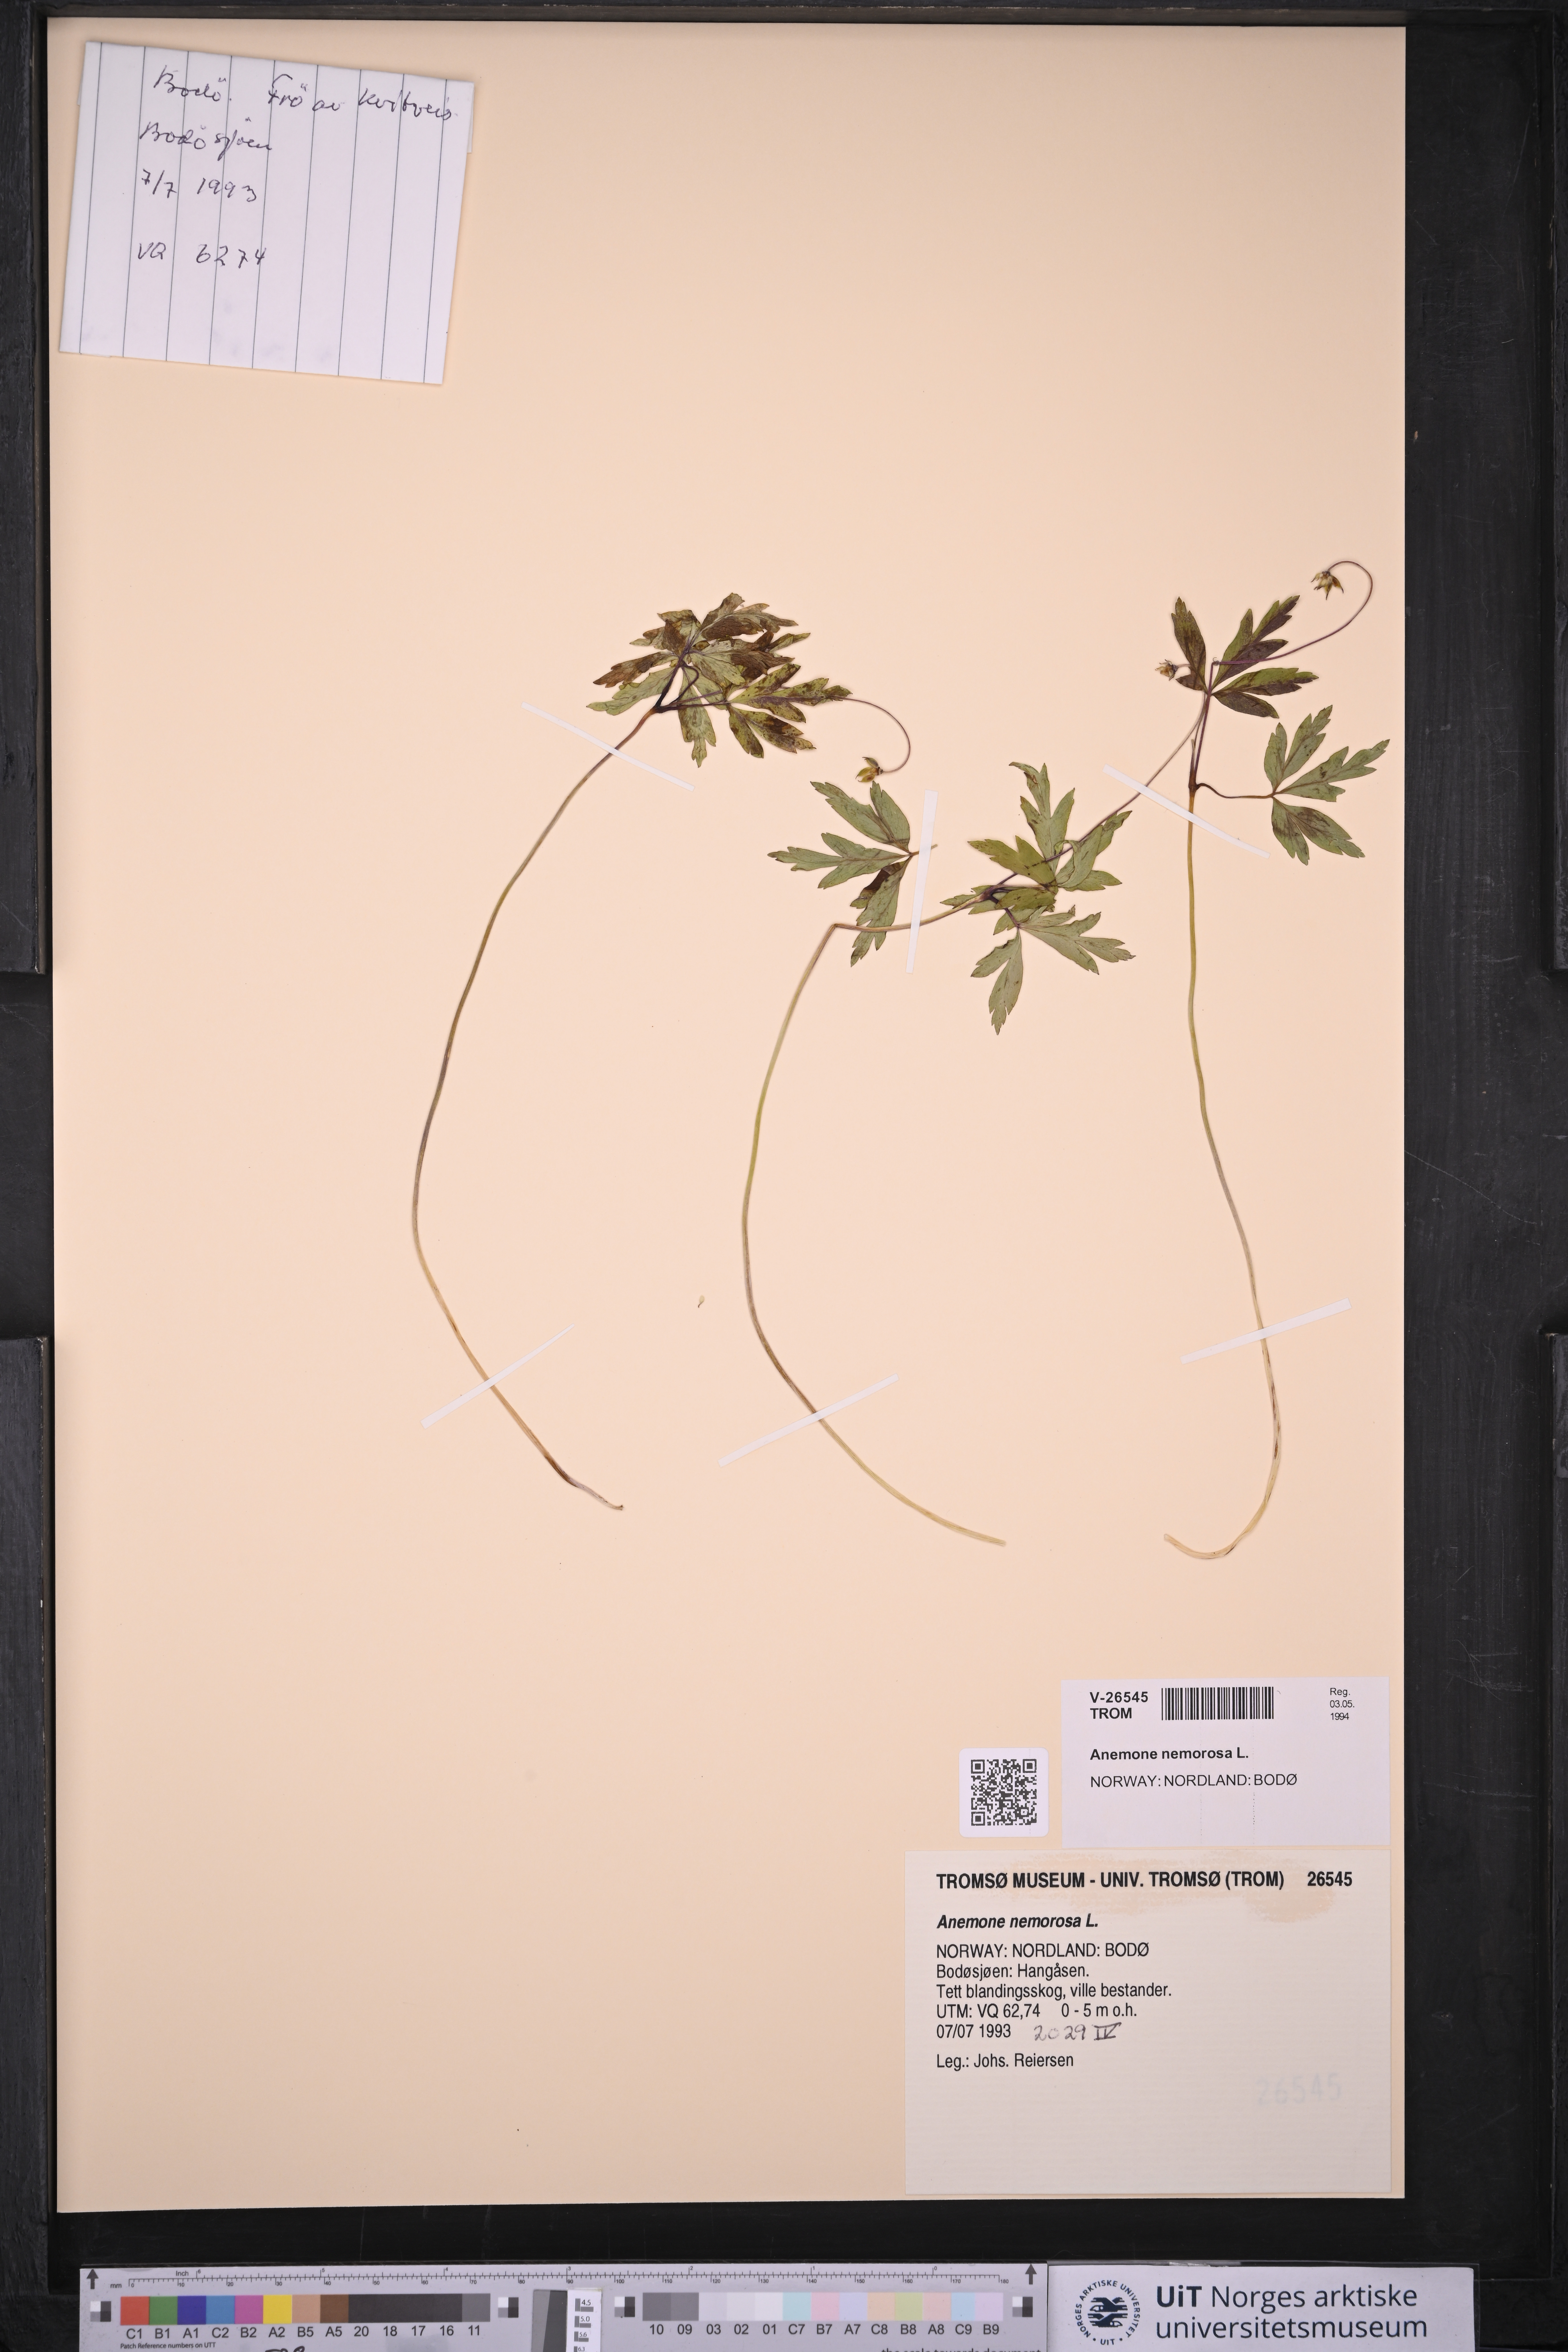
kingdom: Plantae
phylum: Tracheophyta
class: Magnoliopsida
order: Ranunculales
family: Ranunculaceae
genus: Anemone
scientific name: Anemone nemorosa
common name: Wood anemone
